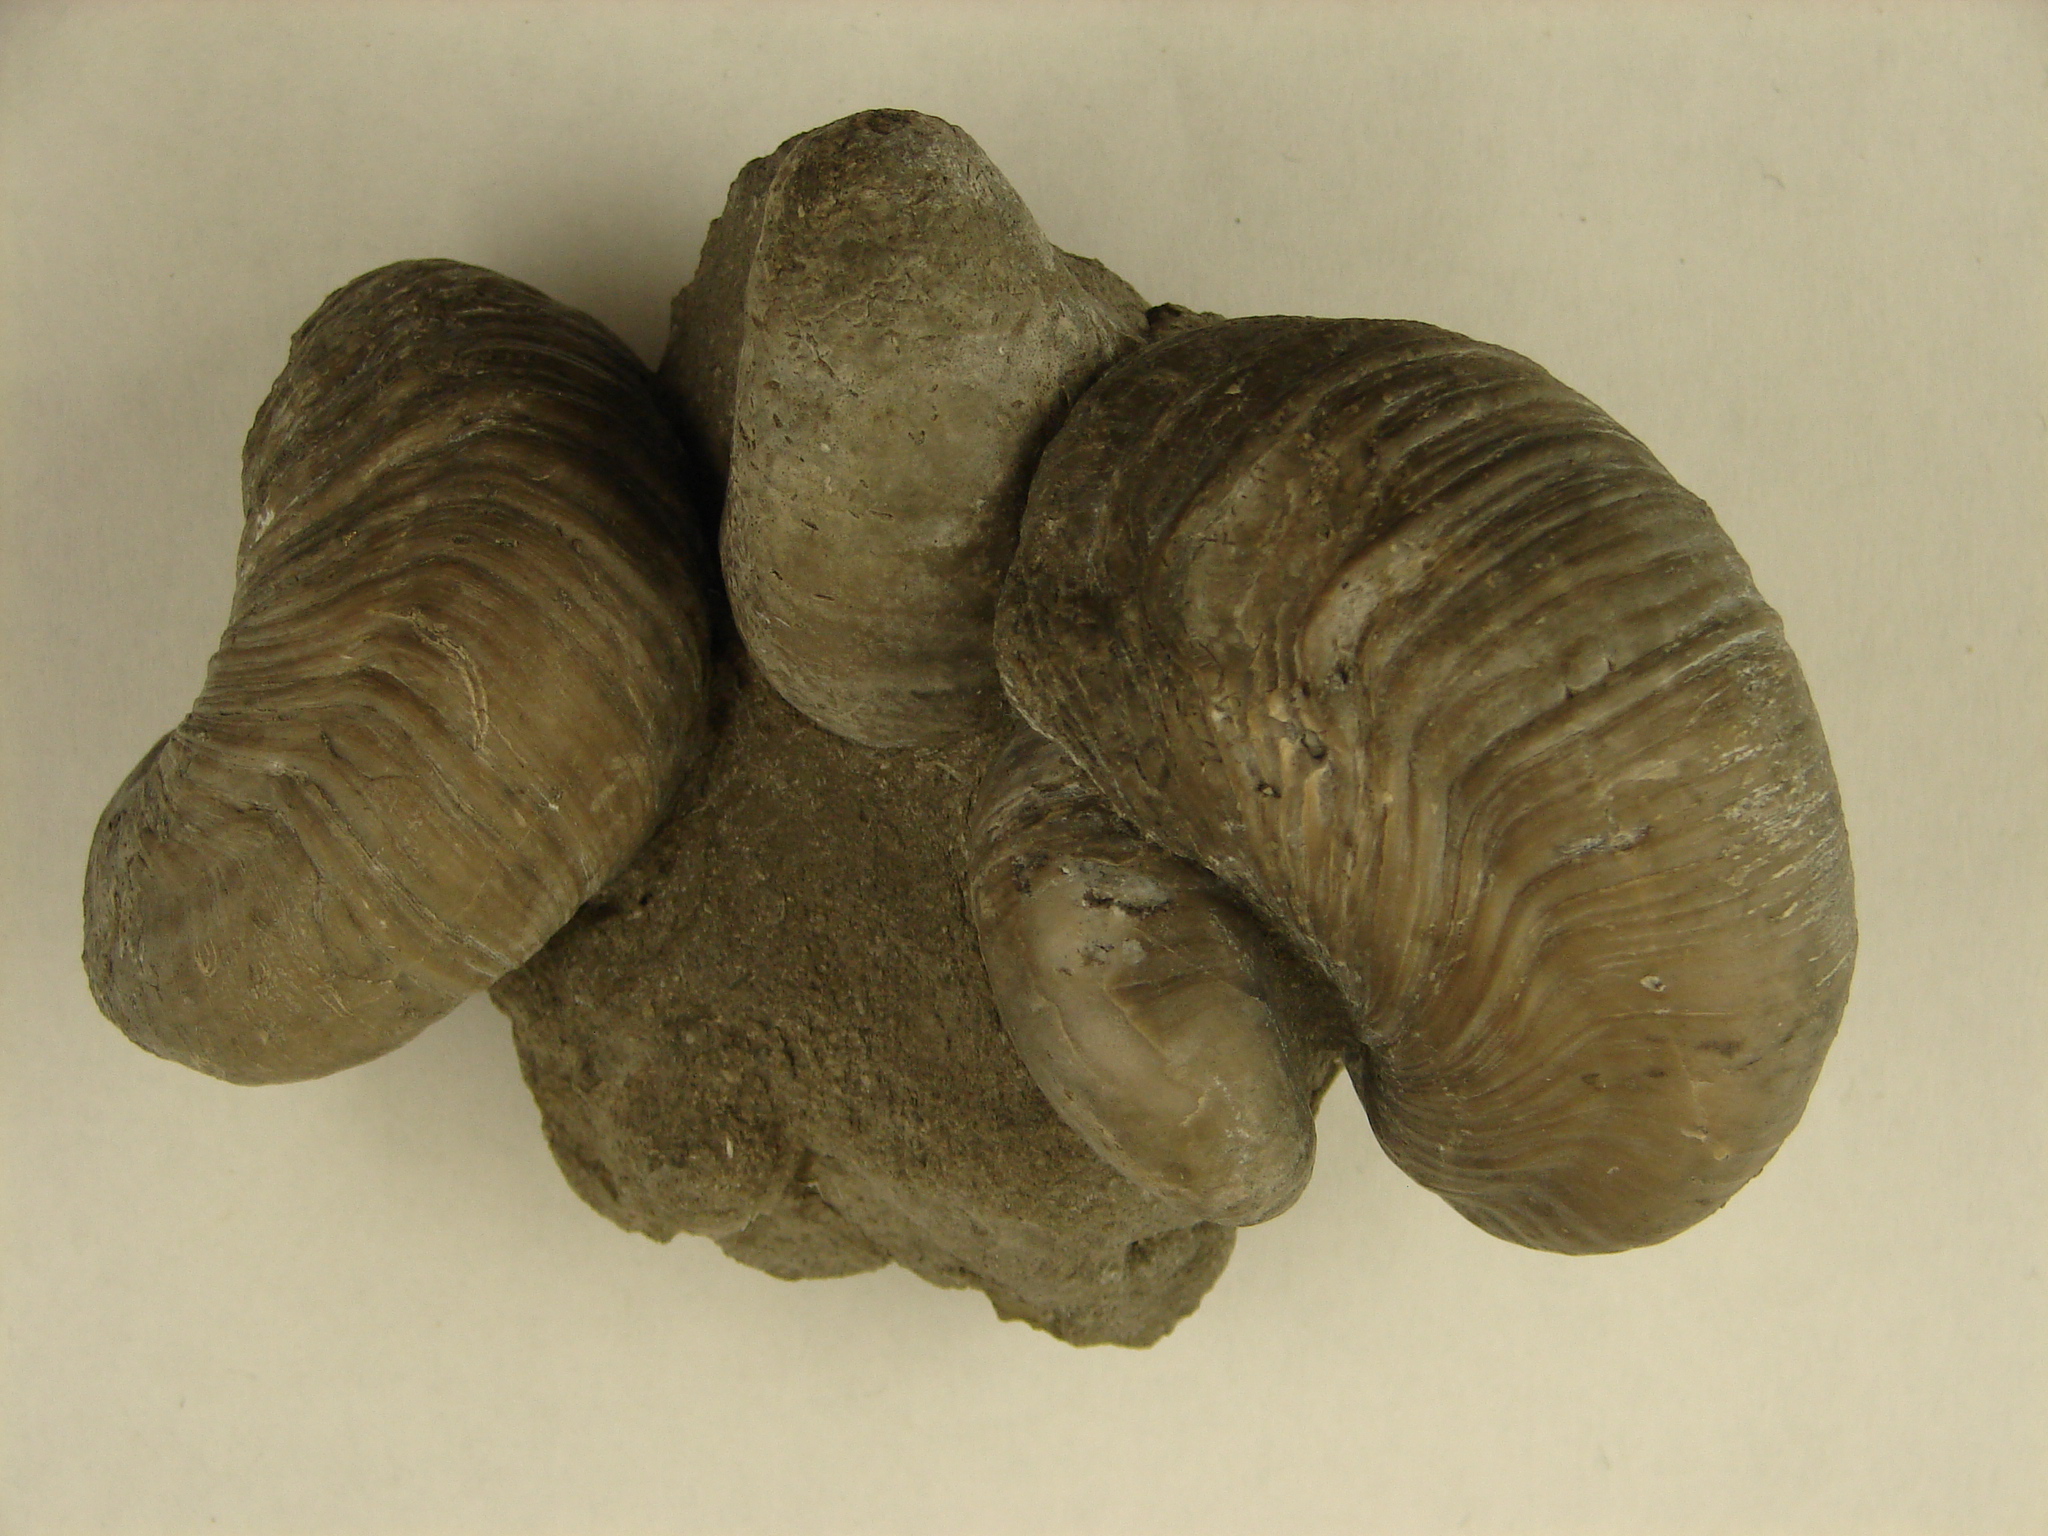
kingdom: Animalia
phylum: Mollusca
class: Bivalvia
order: Ostreida
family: Gryphaeidae
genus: Gryphaea
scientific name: Gryphaea arcuata
